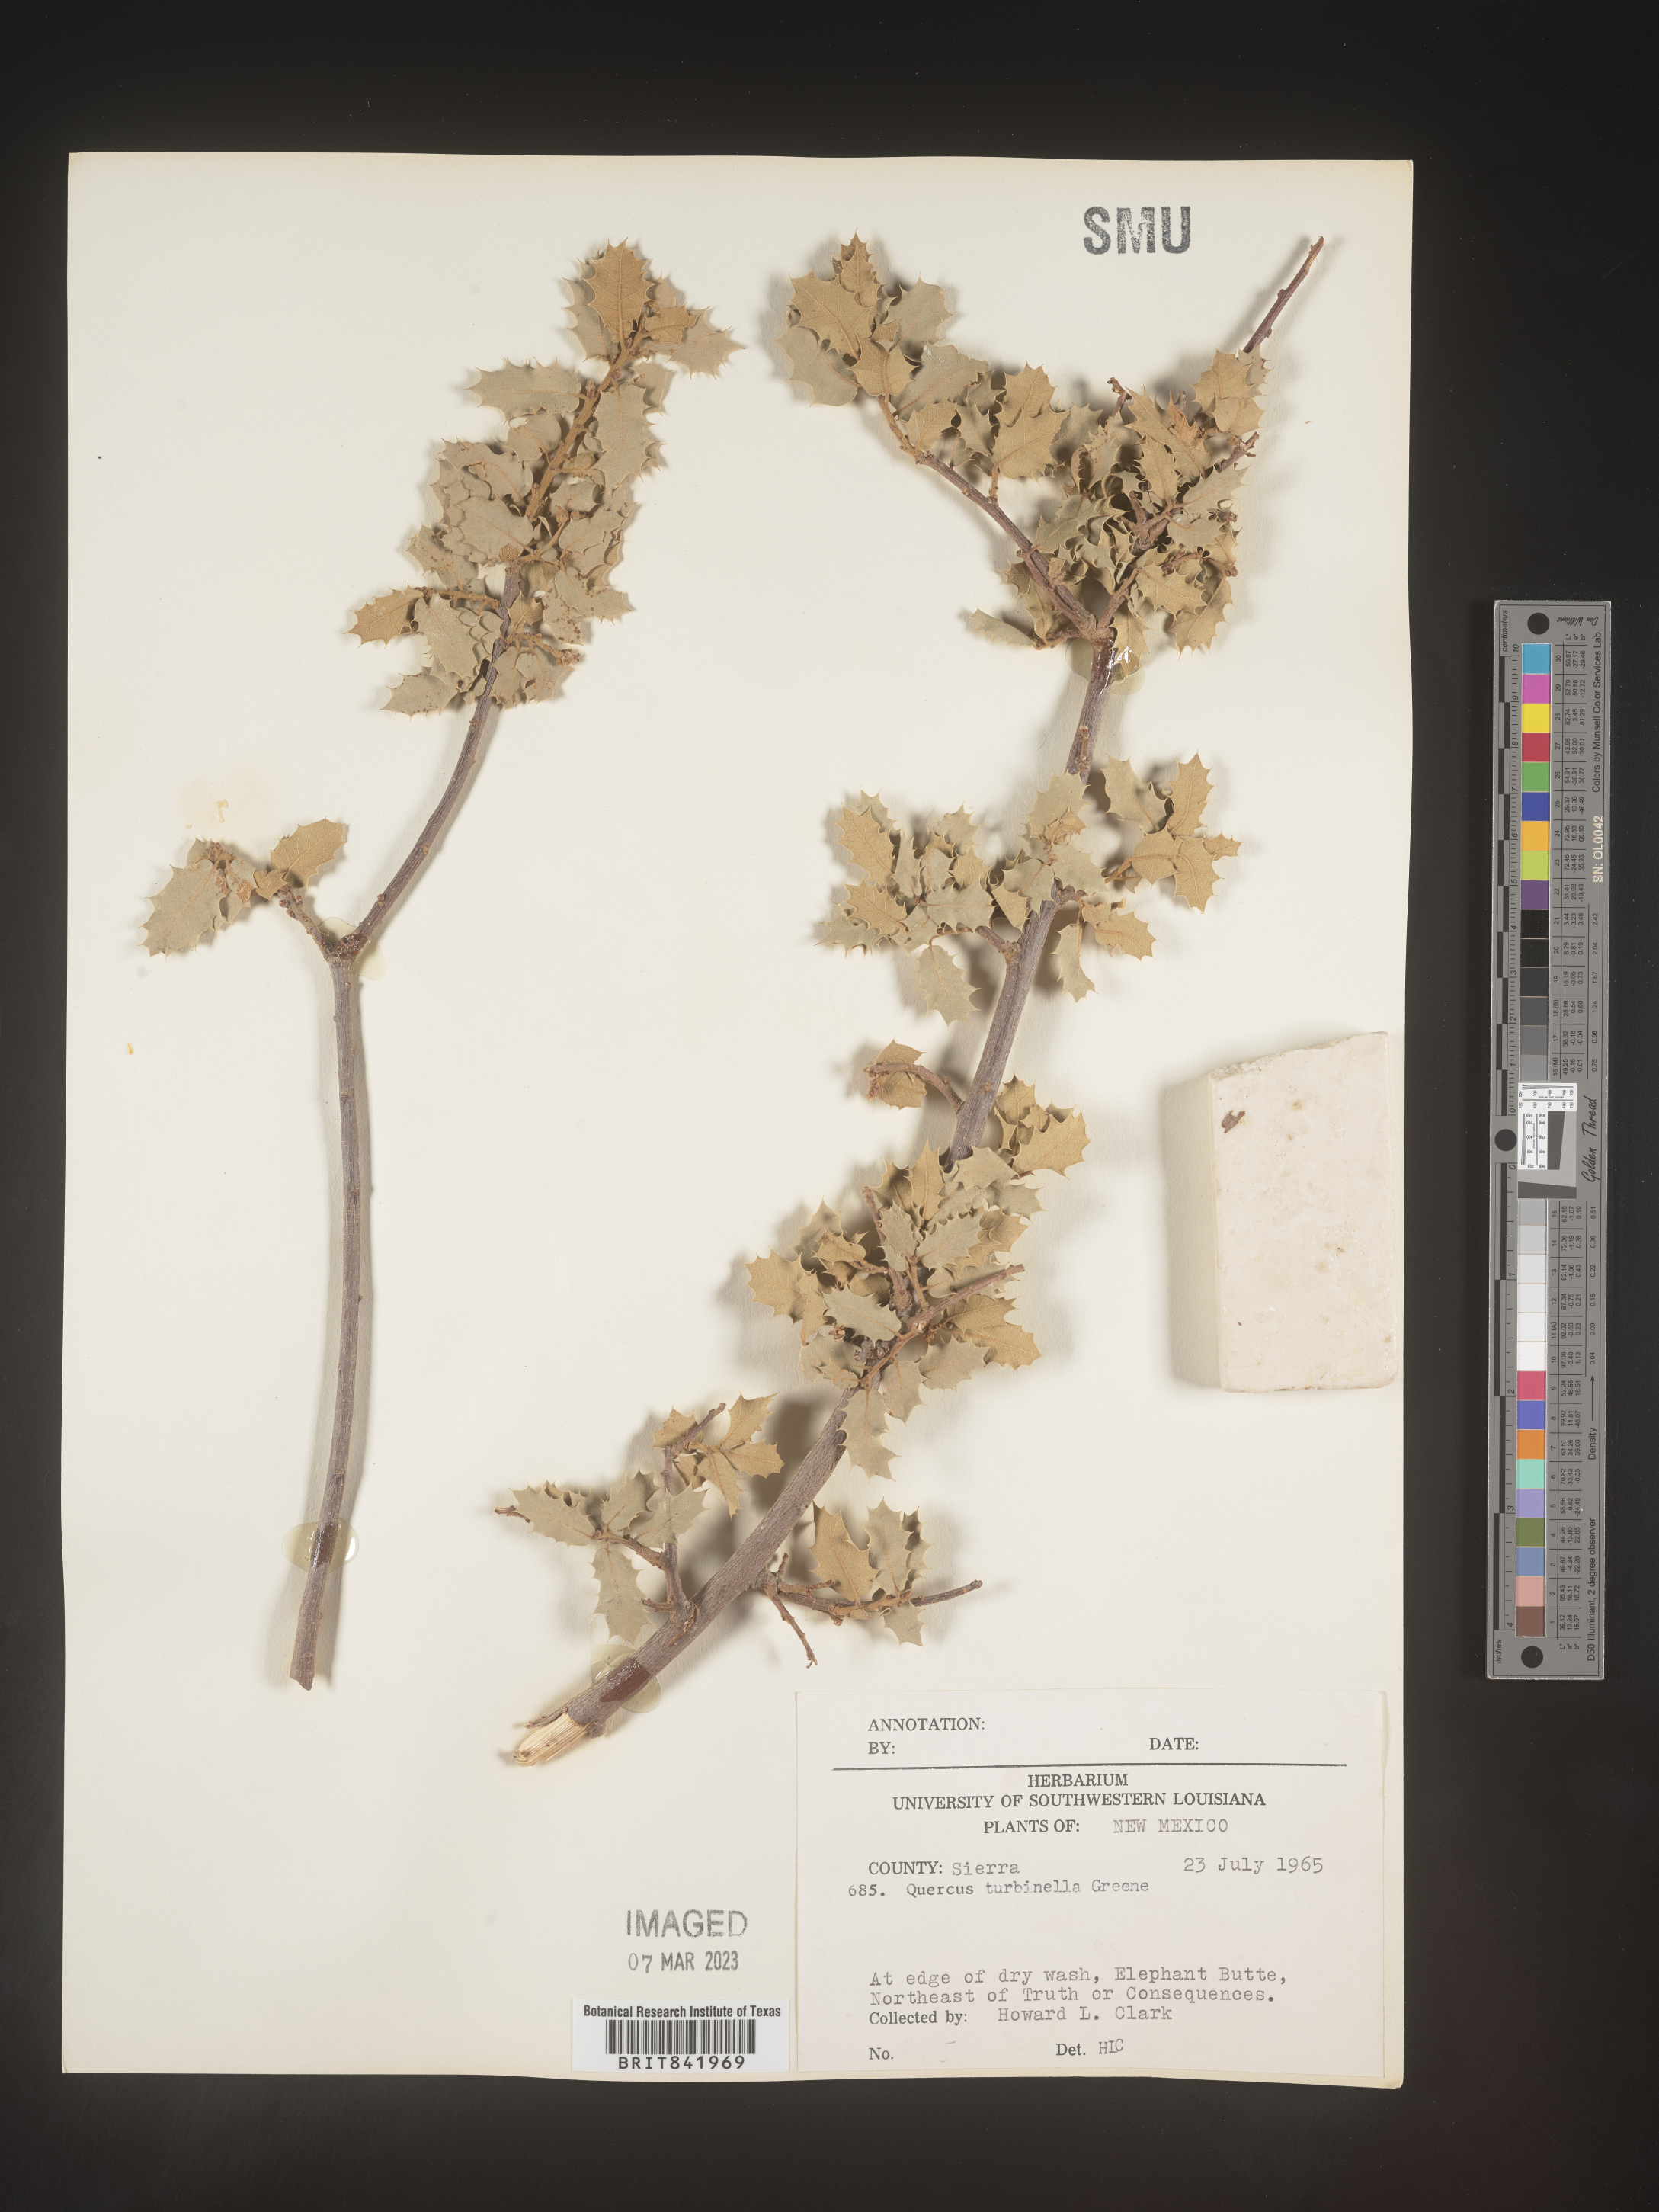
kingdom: Plantae
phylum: Tracheophyta
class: Magnoliopsida
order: Fagales
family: Fagaceae
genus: Quercus
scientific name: Quercus turbinella
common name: Sonoran scrub oak
